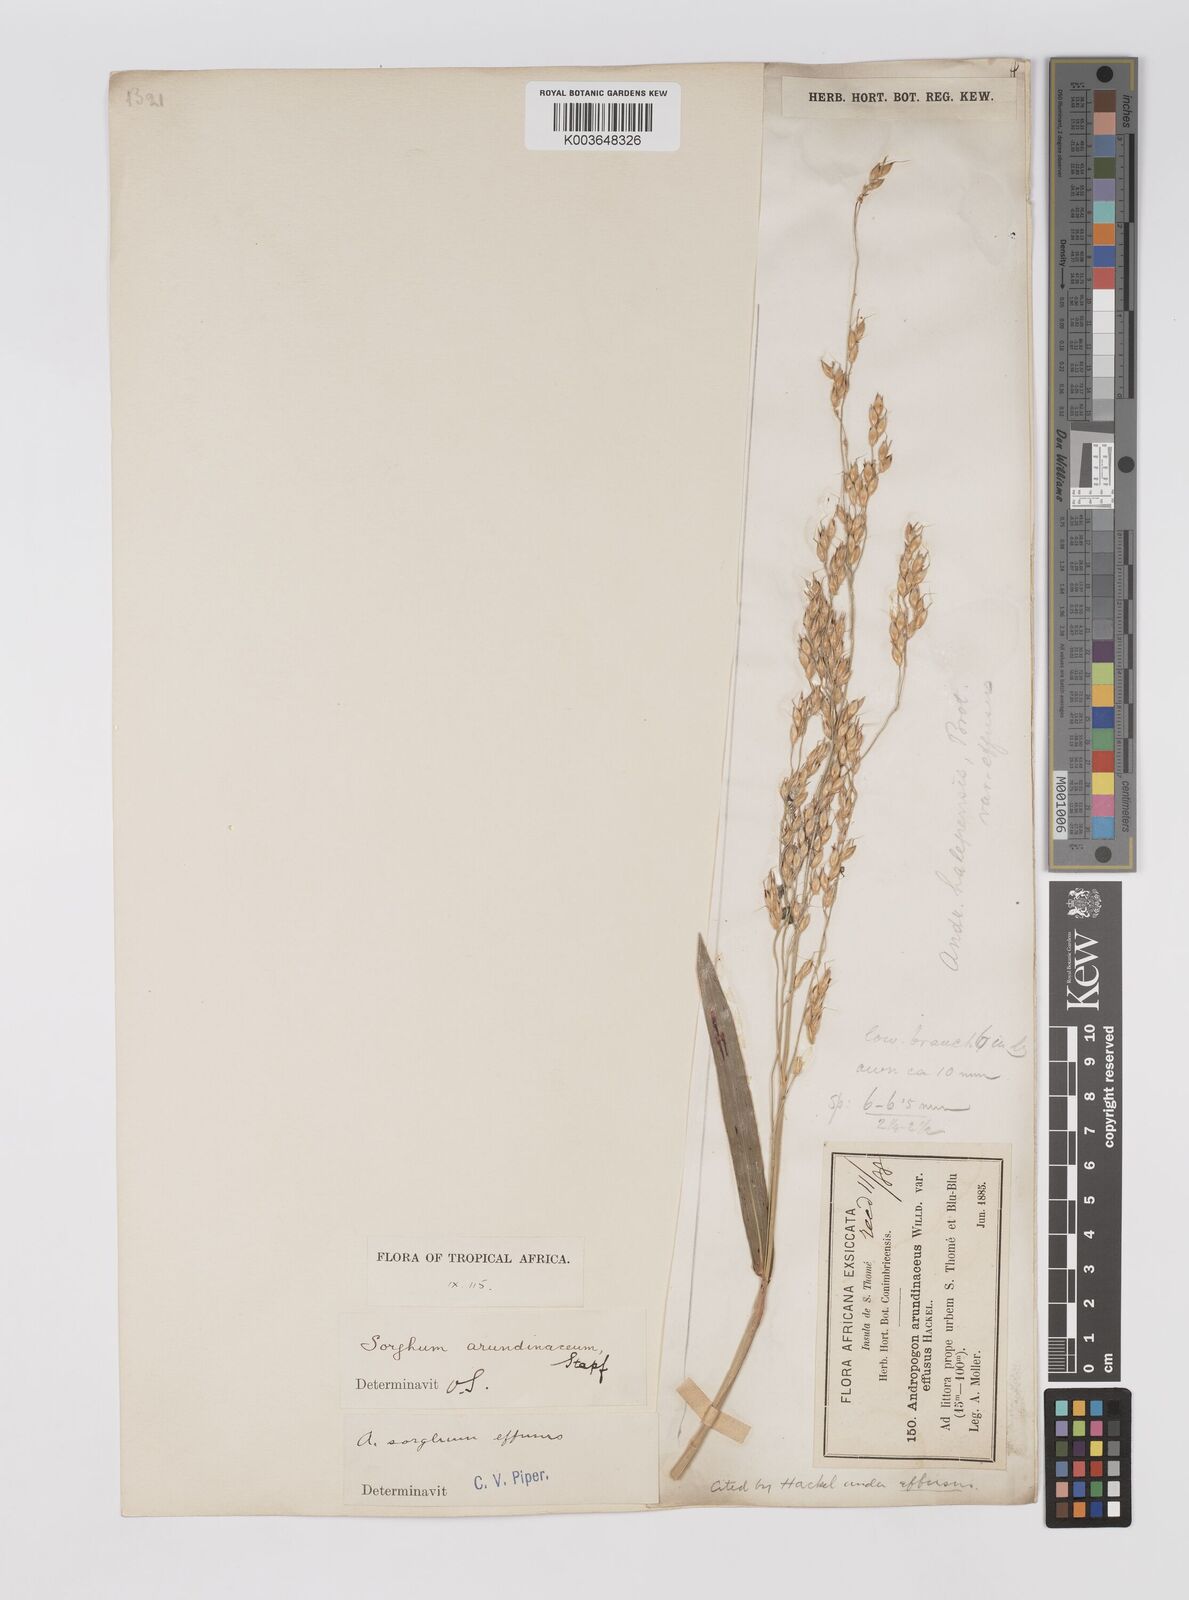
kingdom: Plantae
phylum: Tracheophyta
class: Liliopsida
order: Poales
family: Poaceae
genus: Sorghum
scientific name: Sorghum arundinaceum
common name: Sorghum
